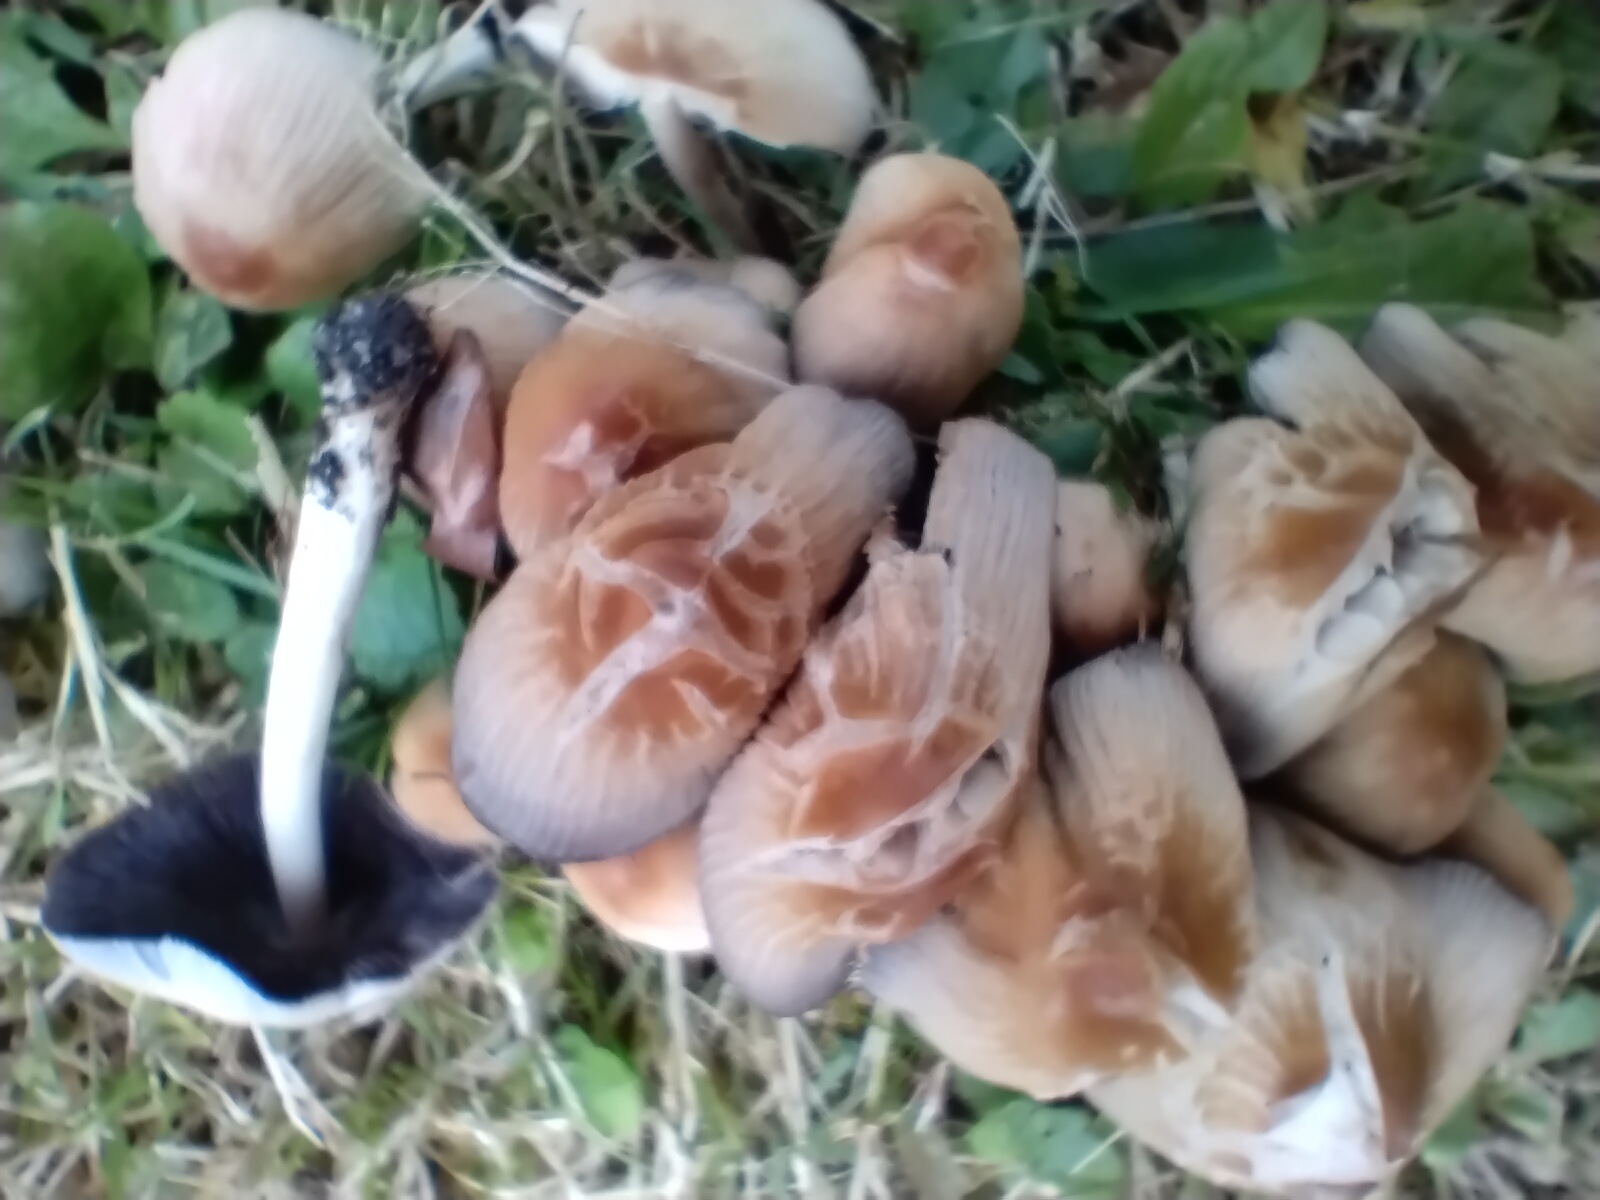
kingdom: Fungi
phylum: Basidiomycota
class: Agaricomycetes
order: Agaricales
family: Psathyrellaceae
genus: Coprinellus
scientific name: Coprinellus micaceus
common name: glimmer-blækhat
